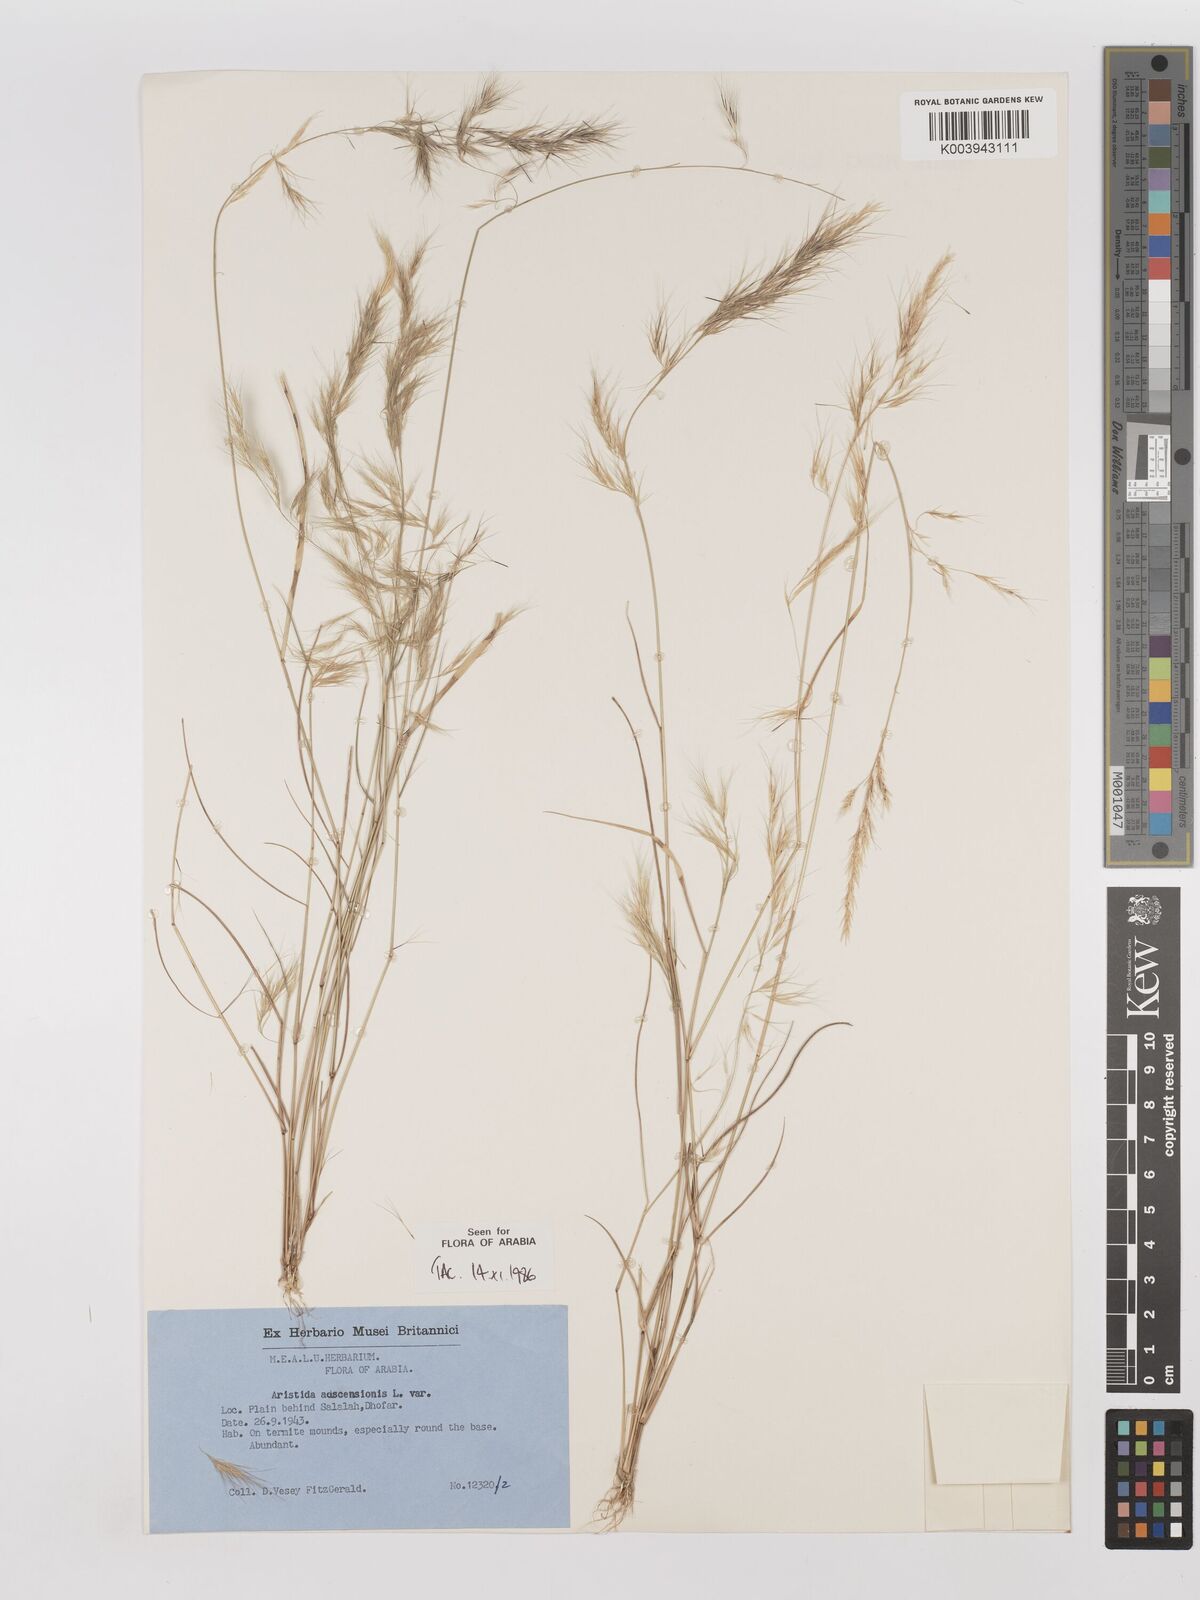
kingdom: Plantae
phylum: Tracheophyta
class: Liliopsida
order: Poales
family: Poaceae
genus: Aristida
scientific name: Aristida adscensionis
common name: Sixweeks threeawn
